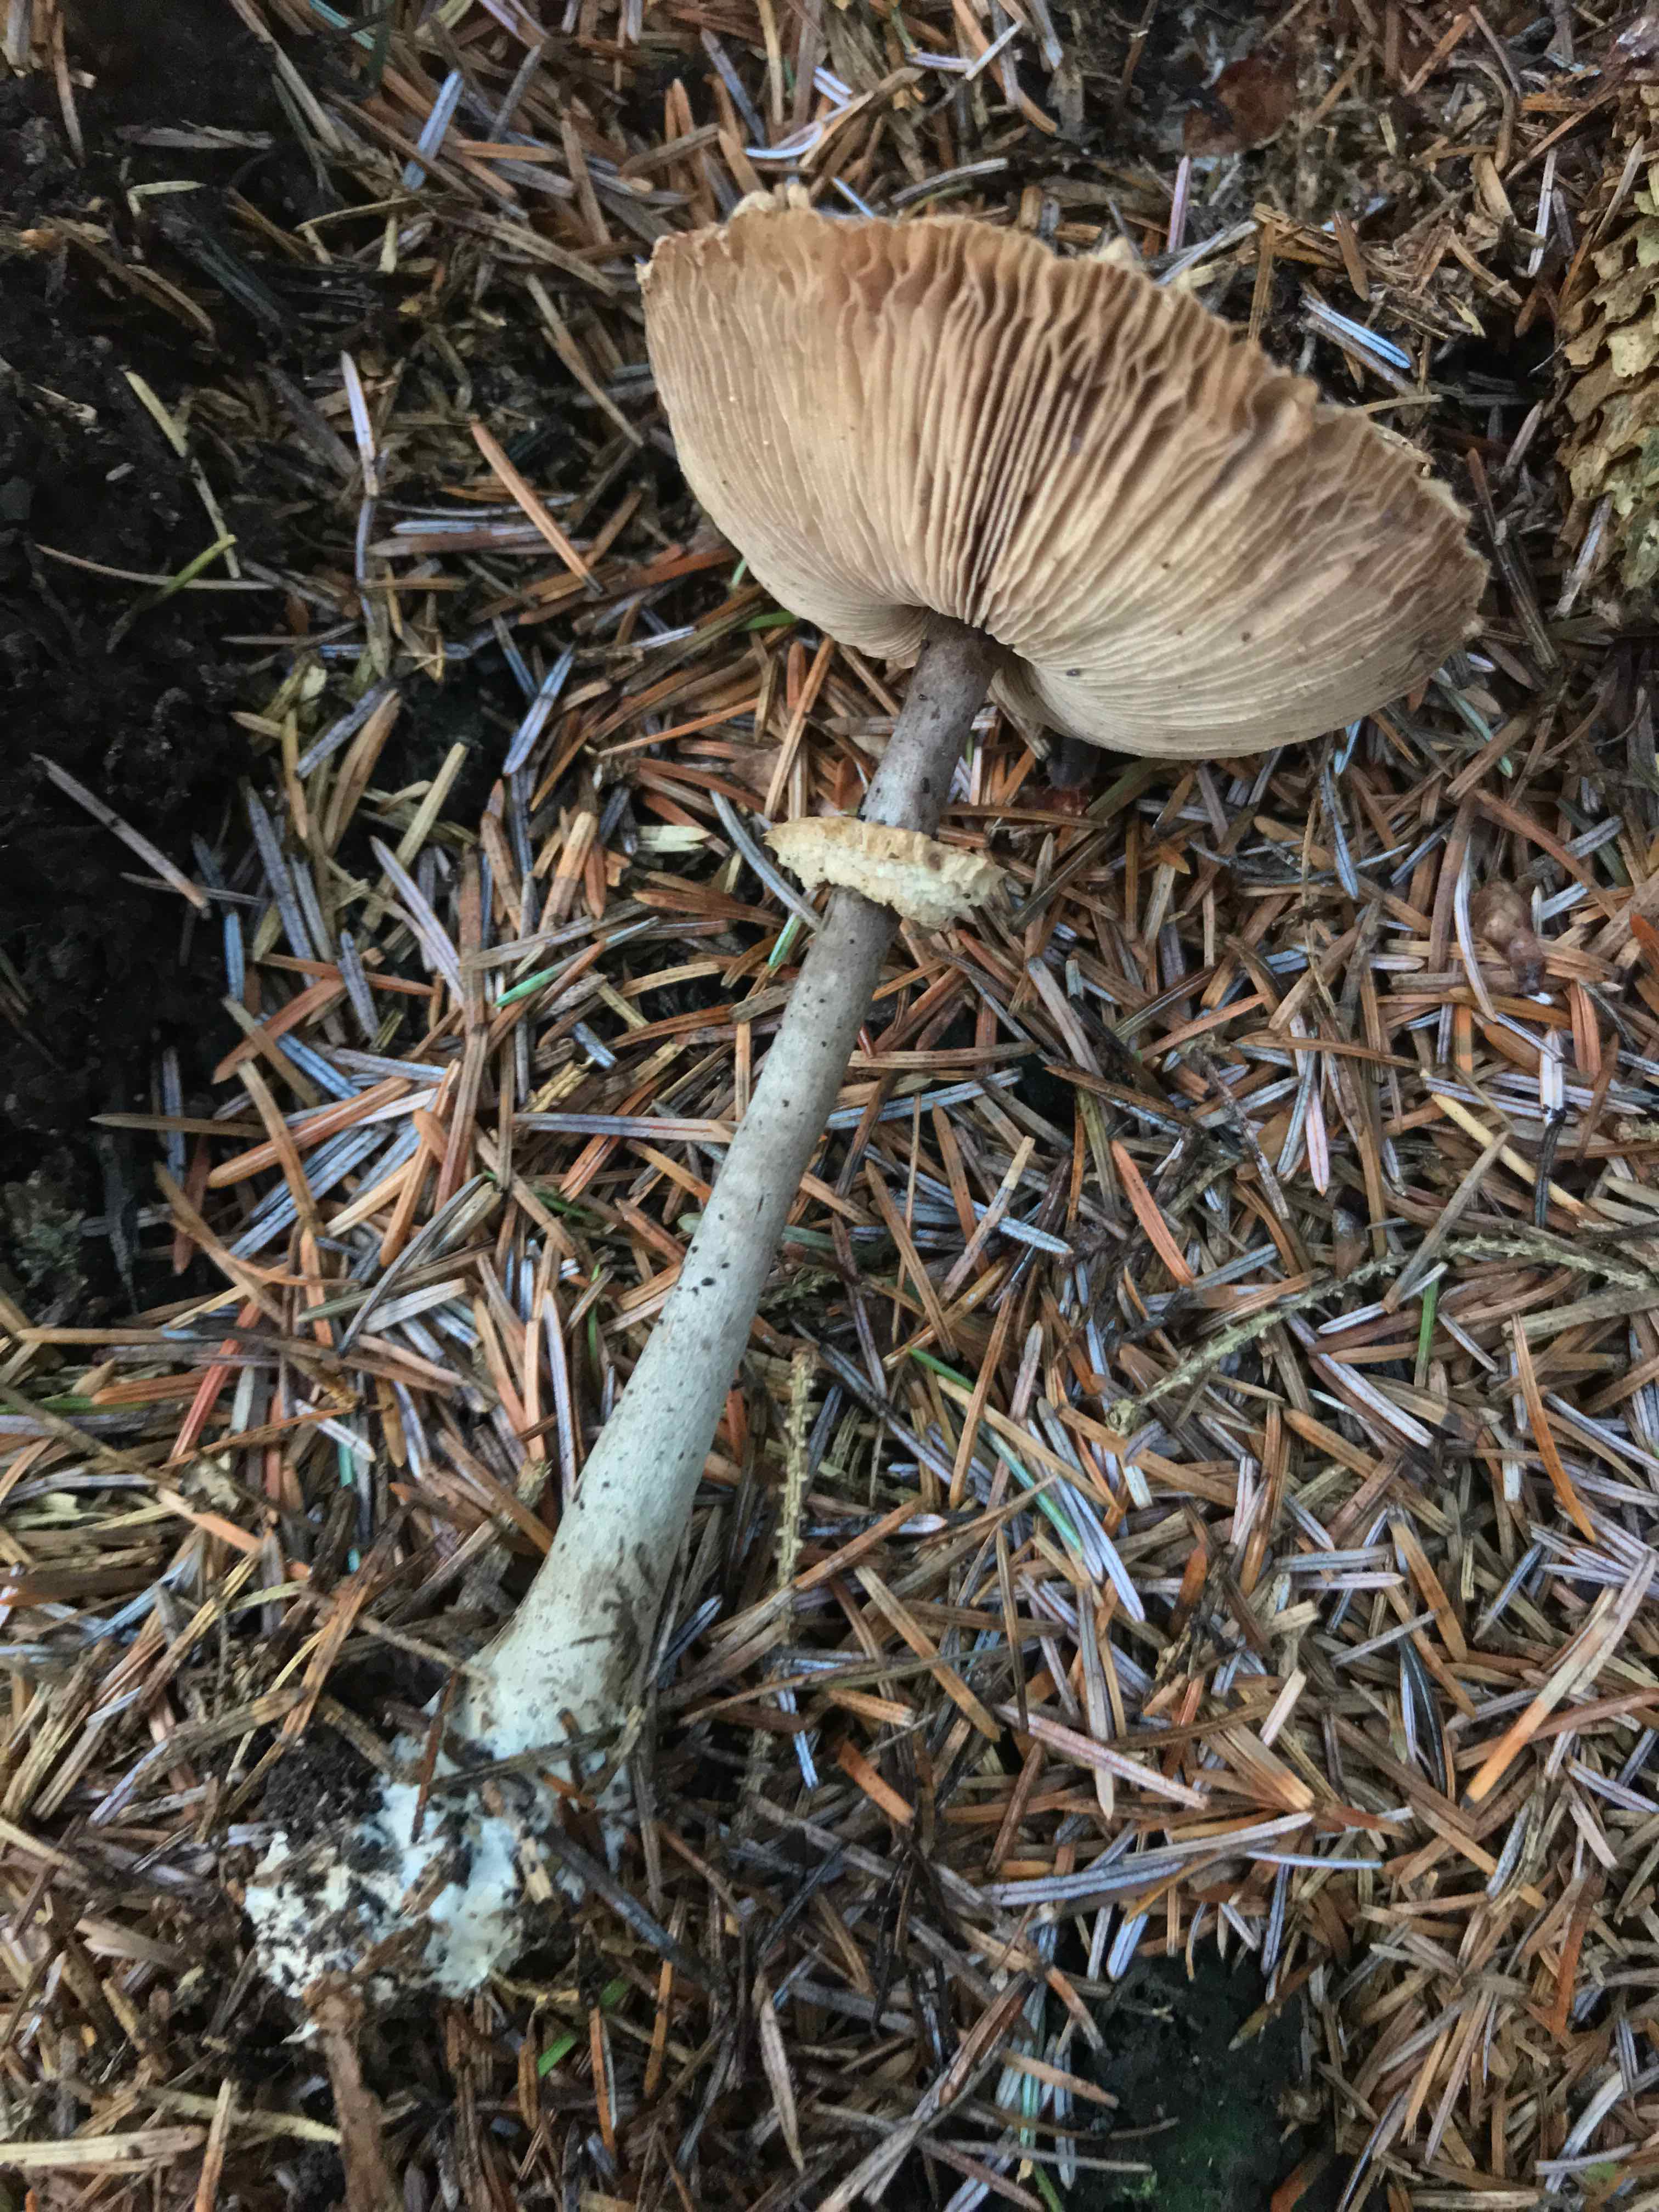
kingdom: Fungi
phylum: Basidiomycota
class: Agaricomycetes
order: Agaricales
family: Agaricaceae
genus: Leucoagaricus
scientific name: Leucoagaricus nympharum
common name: gran-silkehat
